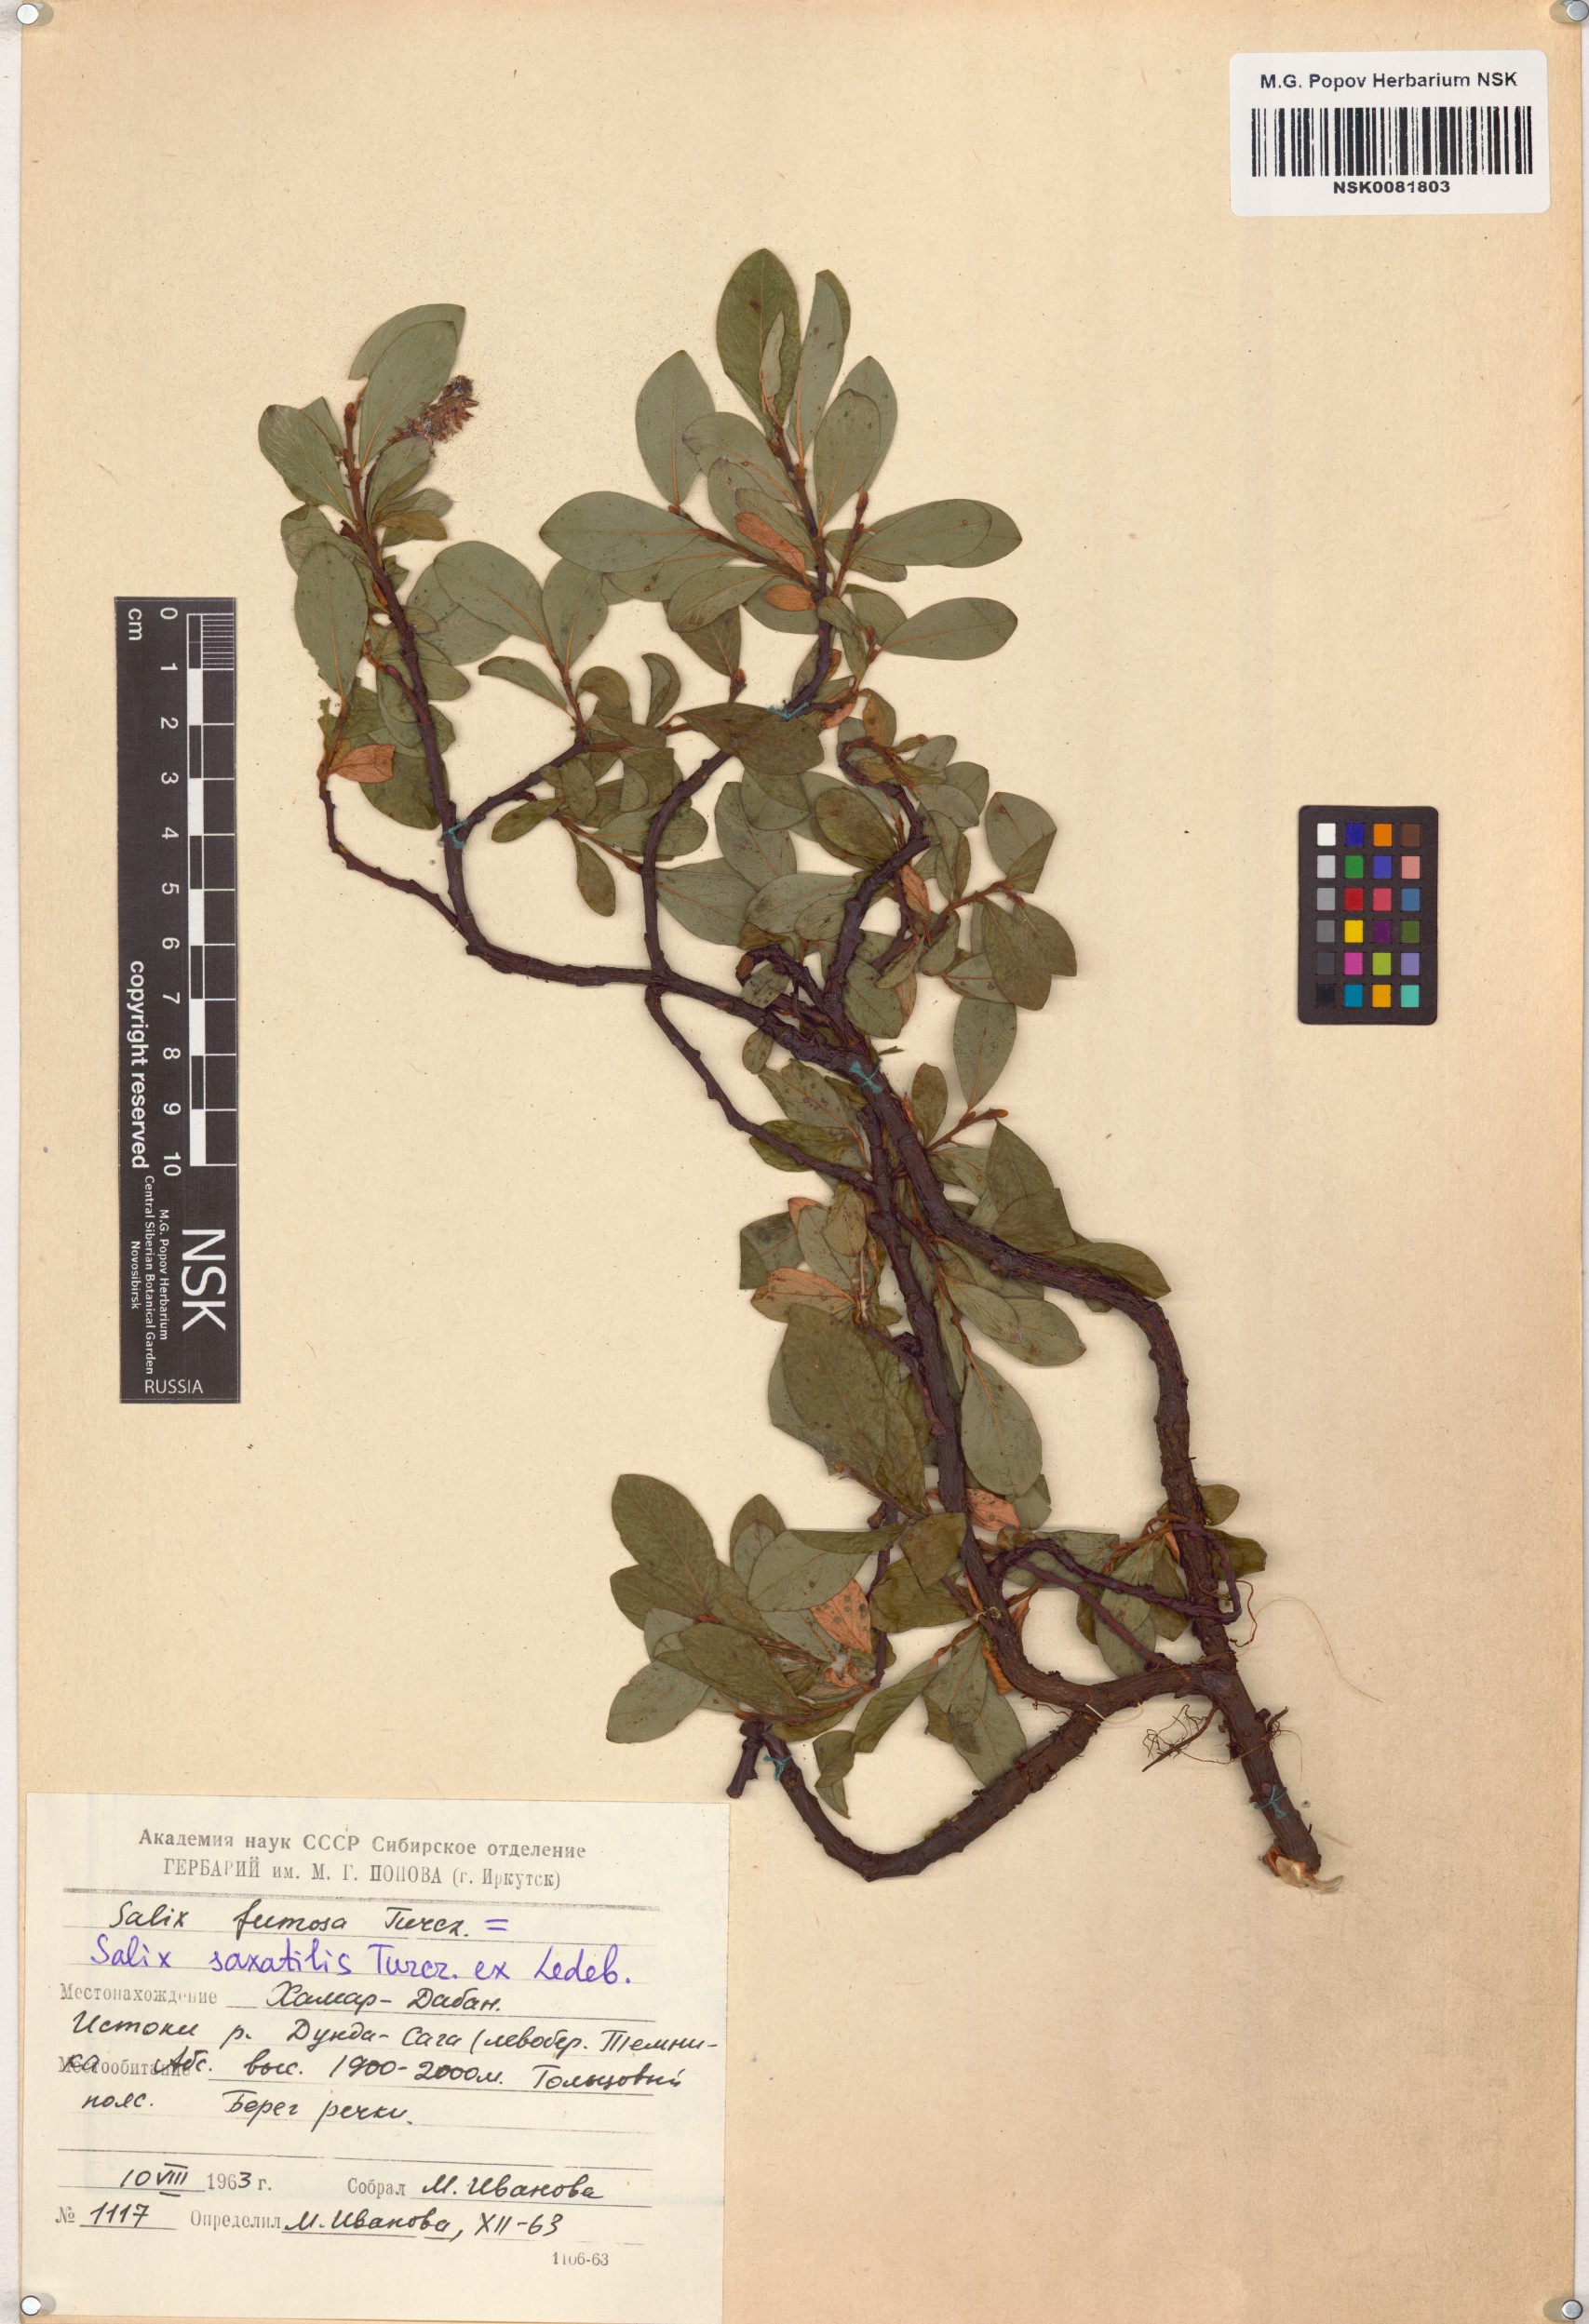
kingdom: Plantae
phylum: Tracheophyta
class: Magnoliopsida
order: Malpighiales
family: Salicaceae
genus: Salix
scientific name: Salix saxatilis
